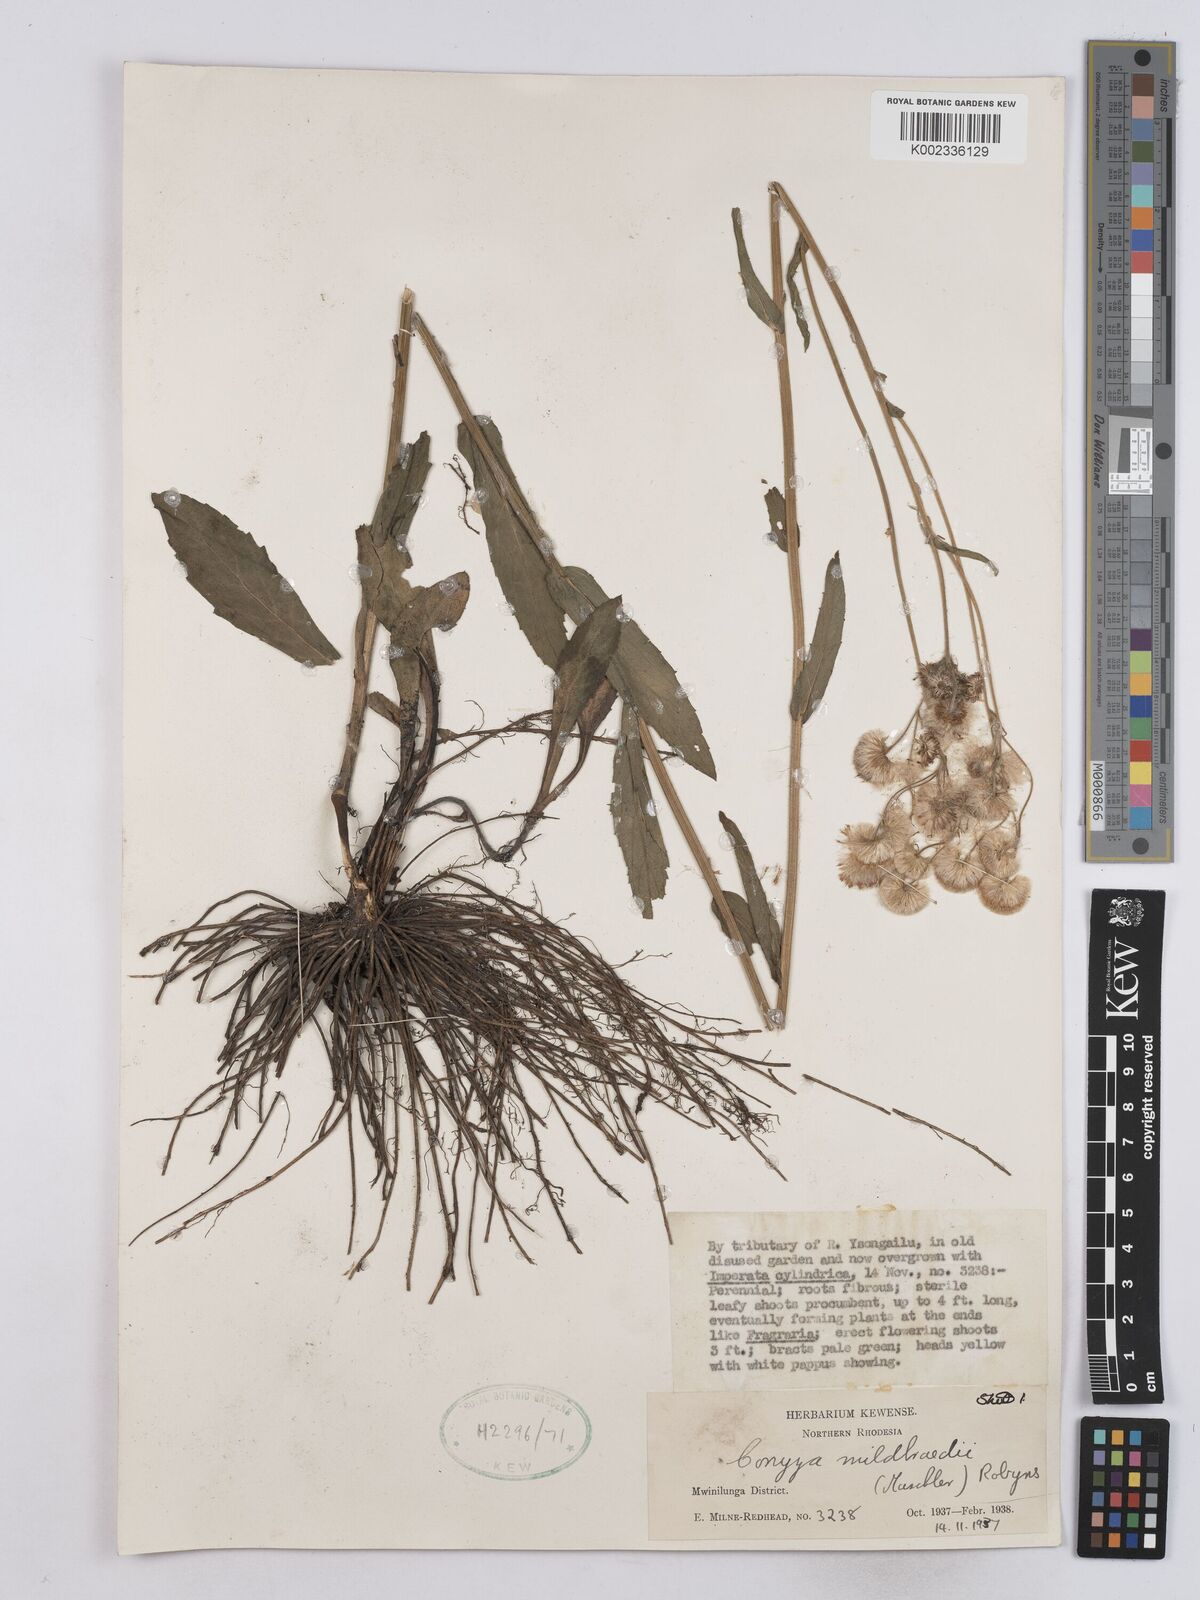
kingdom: Plantae
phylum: Tracheophyta
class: Magnoliopsida
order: Asterales
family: Asteraceae
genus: Conyza
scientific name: Conyza limosa
